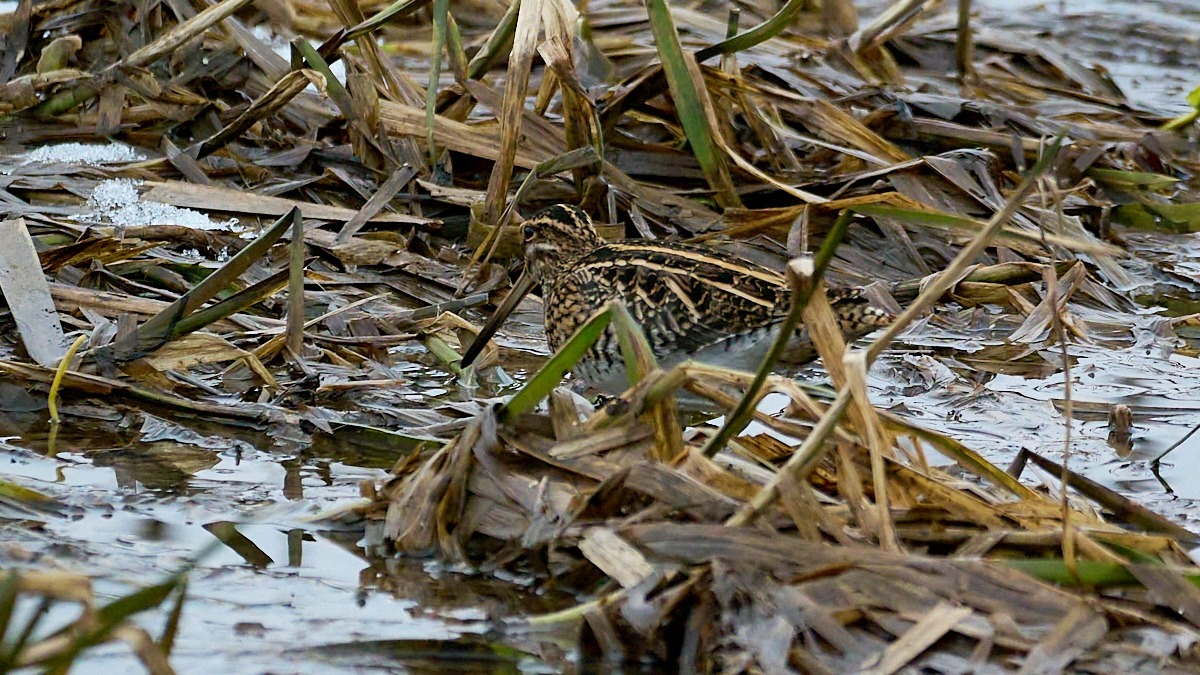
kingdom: Animalia
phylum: Chordata
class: Aves
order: Charadriiformes
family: Scolopacidae
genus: Gallinago
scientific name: Gallinago gallinago
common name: Dobbeltbekkasin
